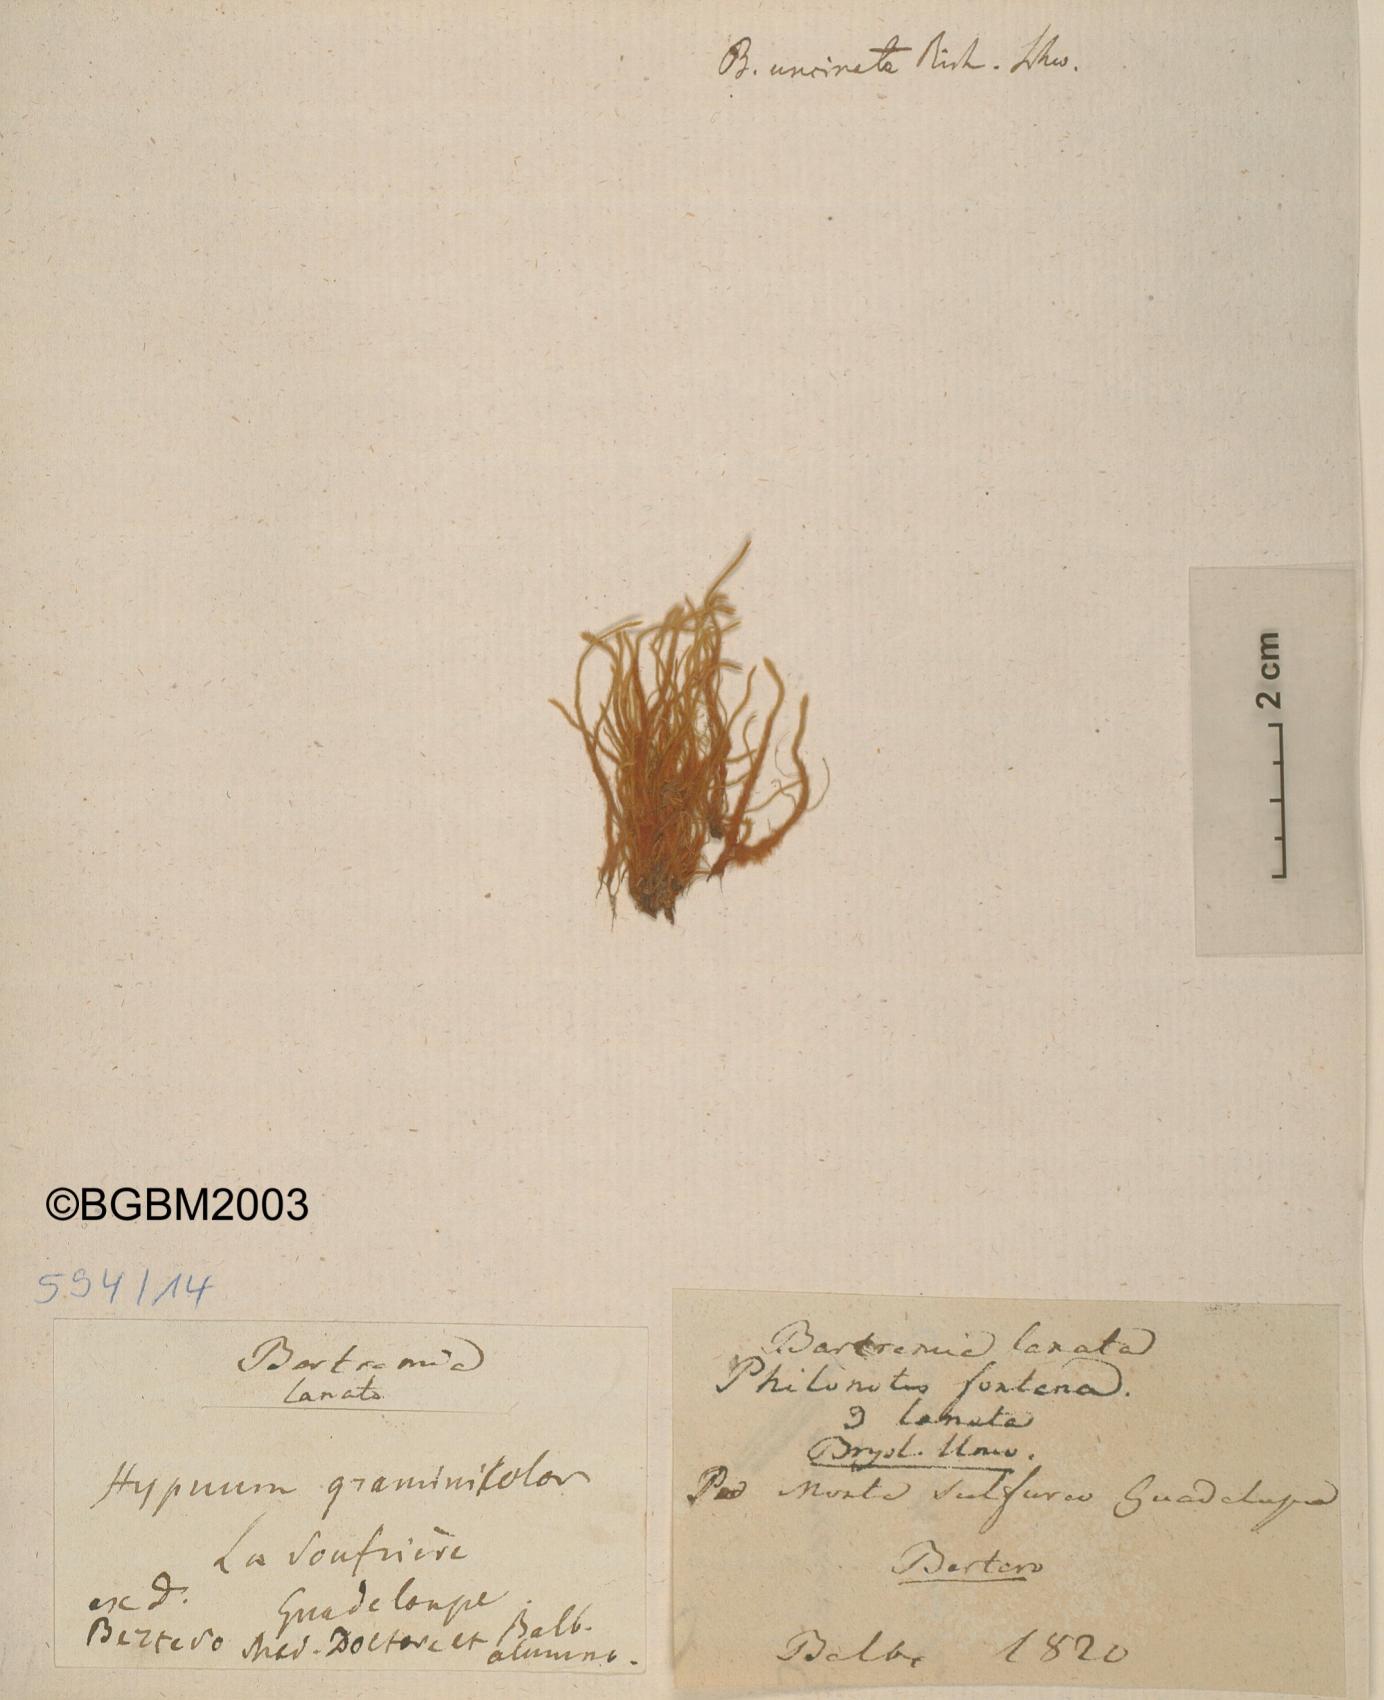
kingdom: Plantae
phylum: Bryophyta
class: Bryopsida
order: Bartramiales
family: Bartramiaceae
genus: Philonotis
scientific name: Philonotis fontana
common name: Fountain apple-moss
